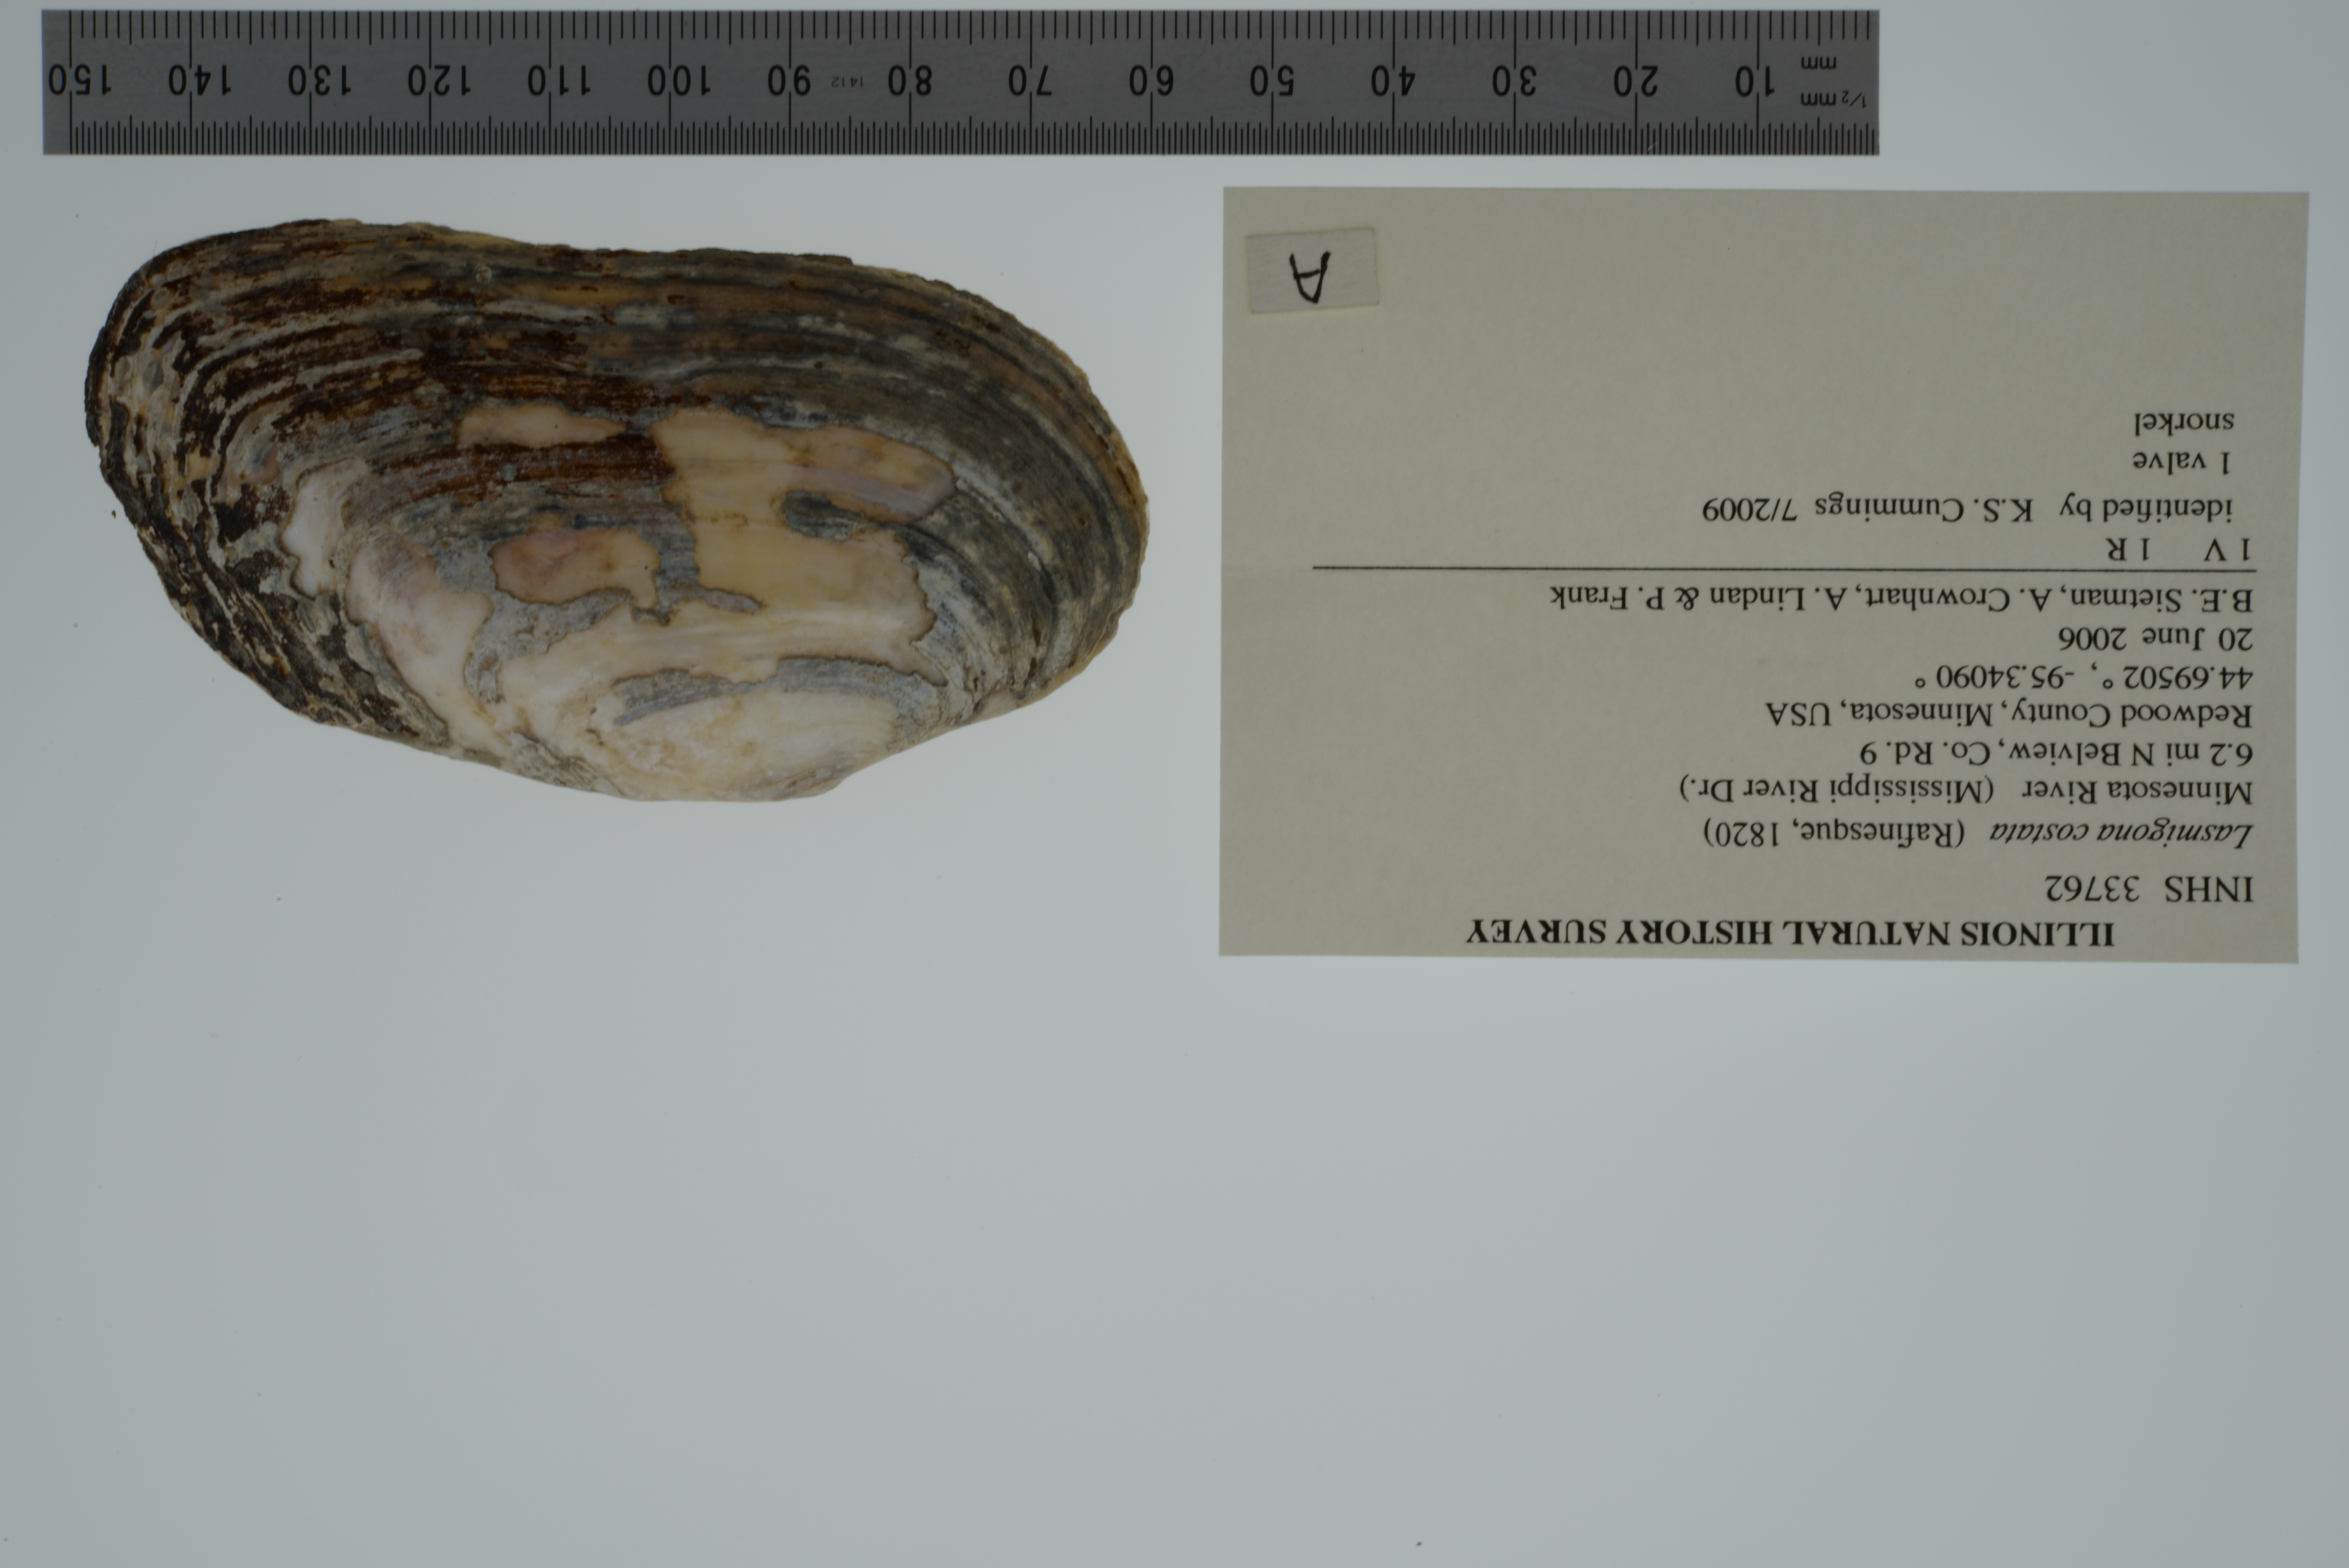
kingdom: Animalia
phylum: Mollusca
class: Bivalvia
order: Unionida
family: Unionidae
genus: Lasmigona
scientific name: Lasmigona costata
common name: Flutedshell
